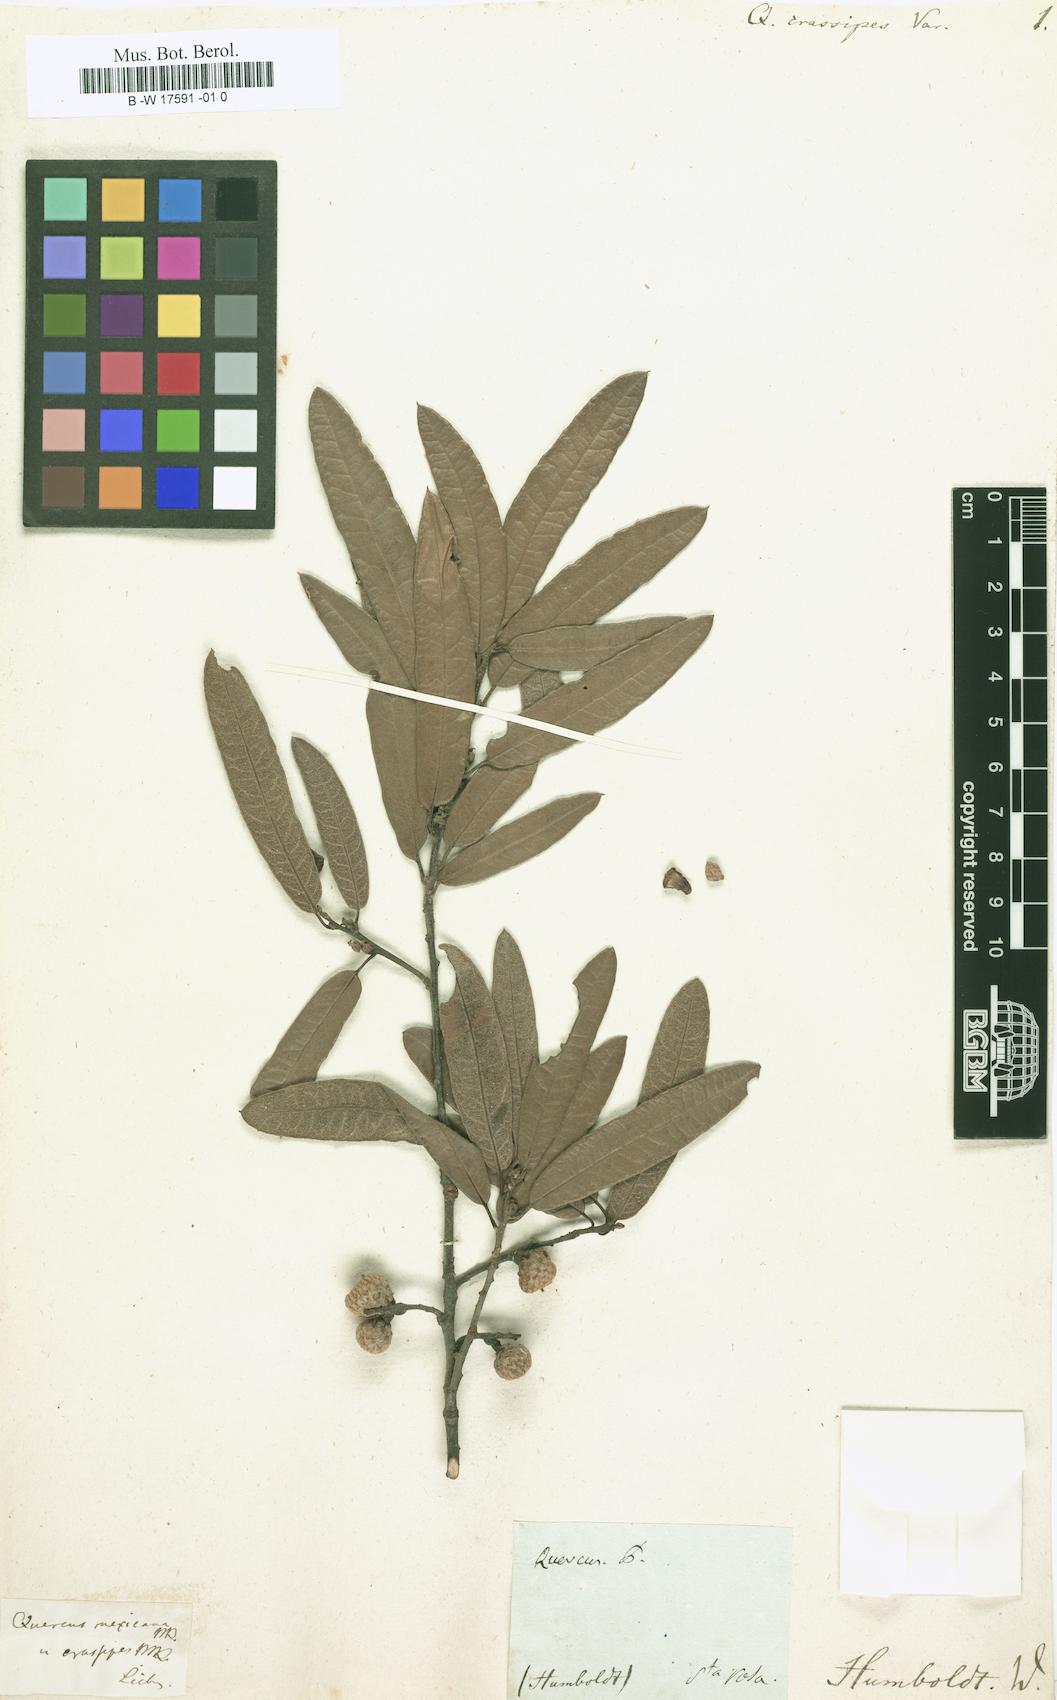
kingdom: Plantae
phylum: Tracheophyta
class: Magnoliopsida
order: Fagales
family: Fagaceae
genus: Quercus
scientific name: Quercus crassipes
